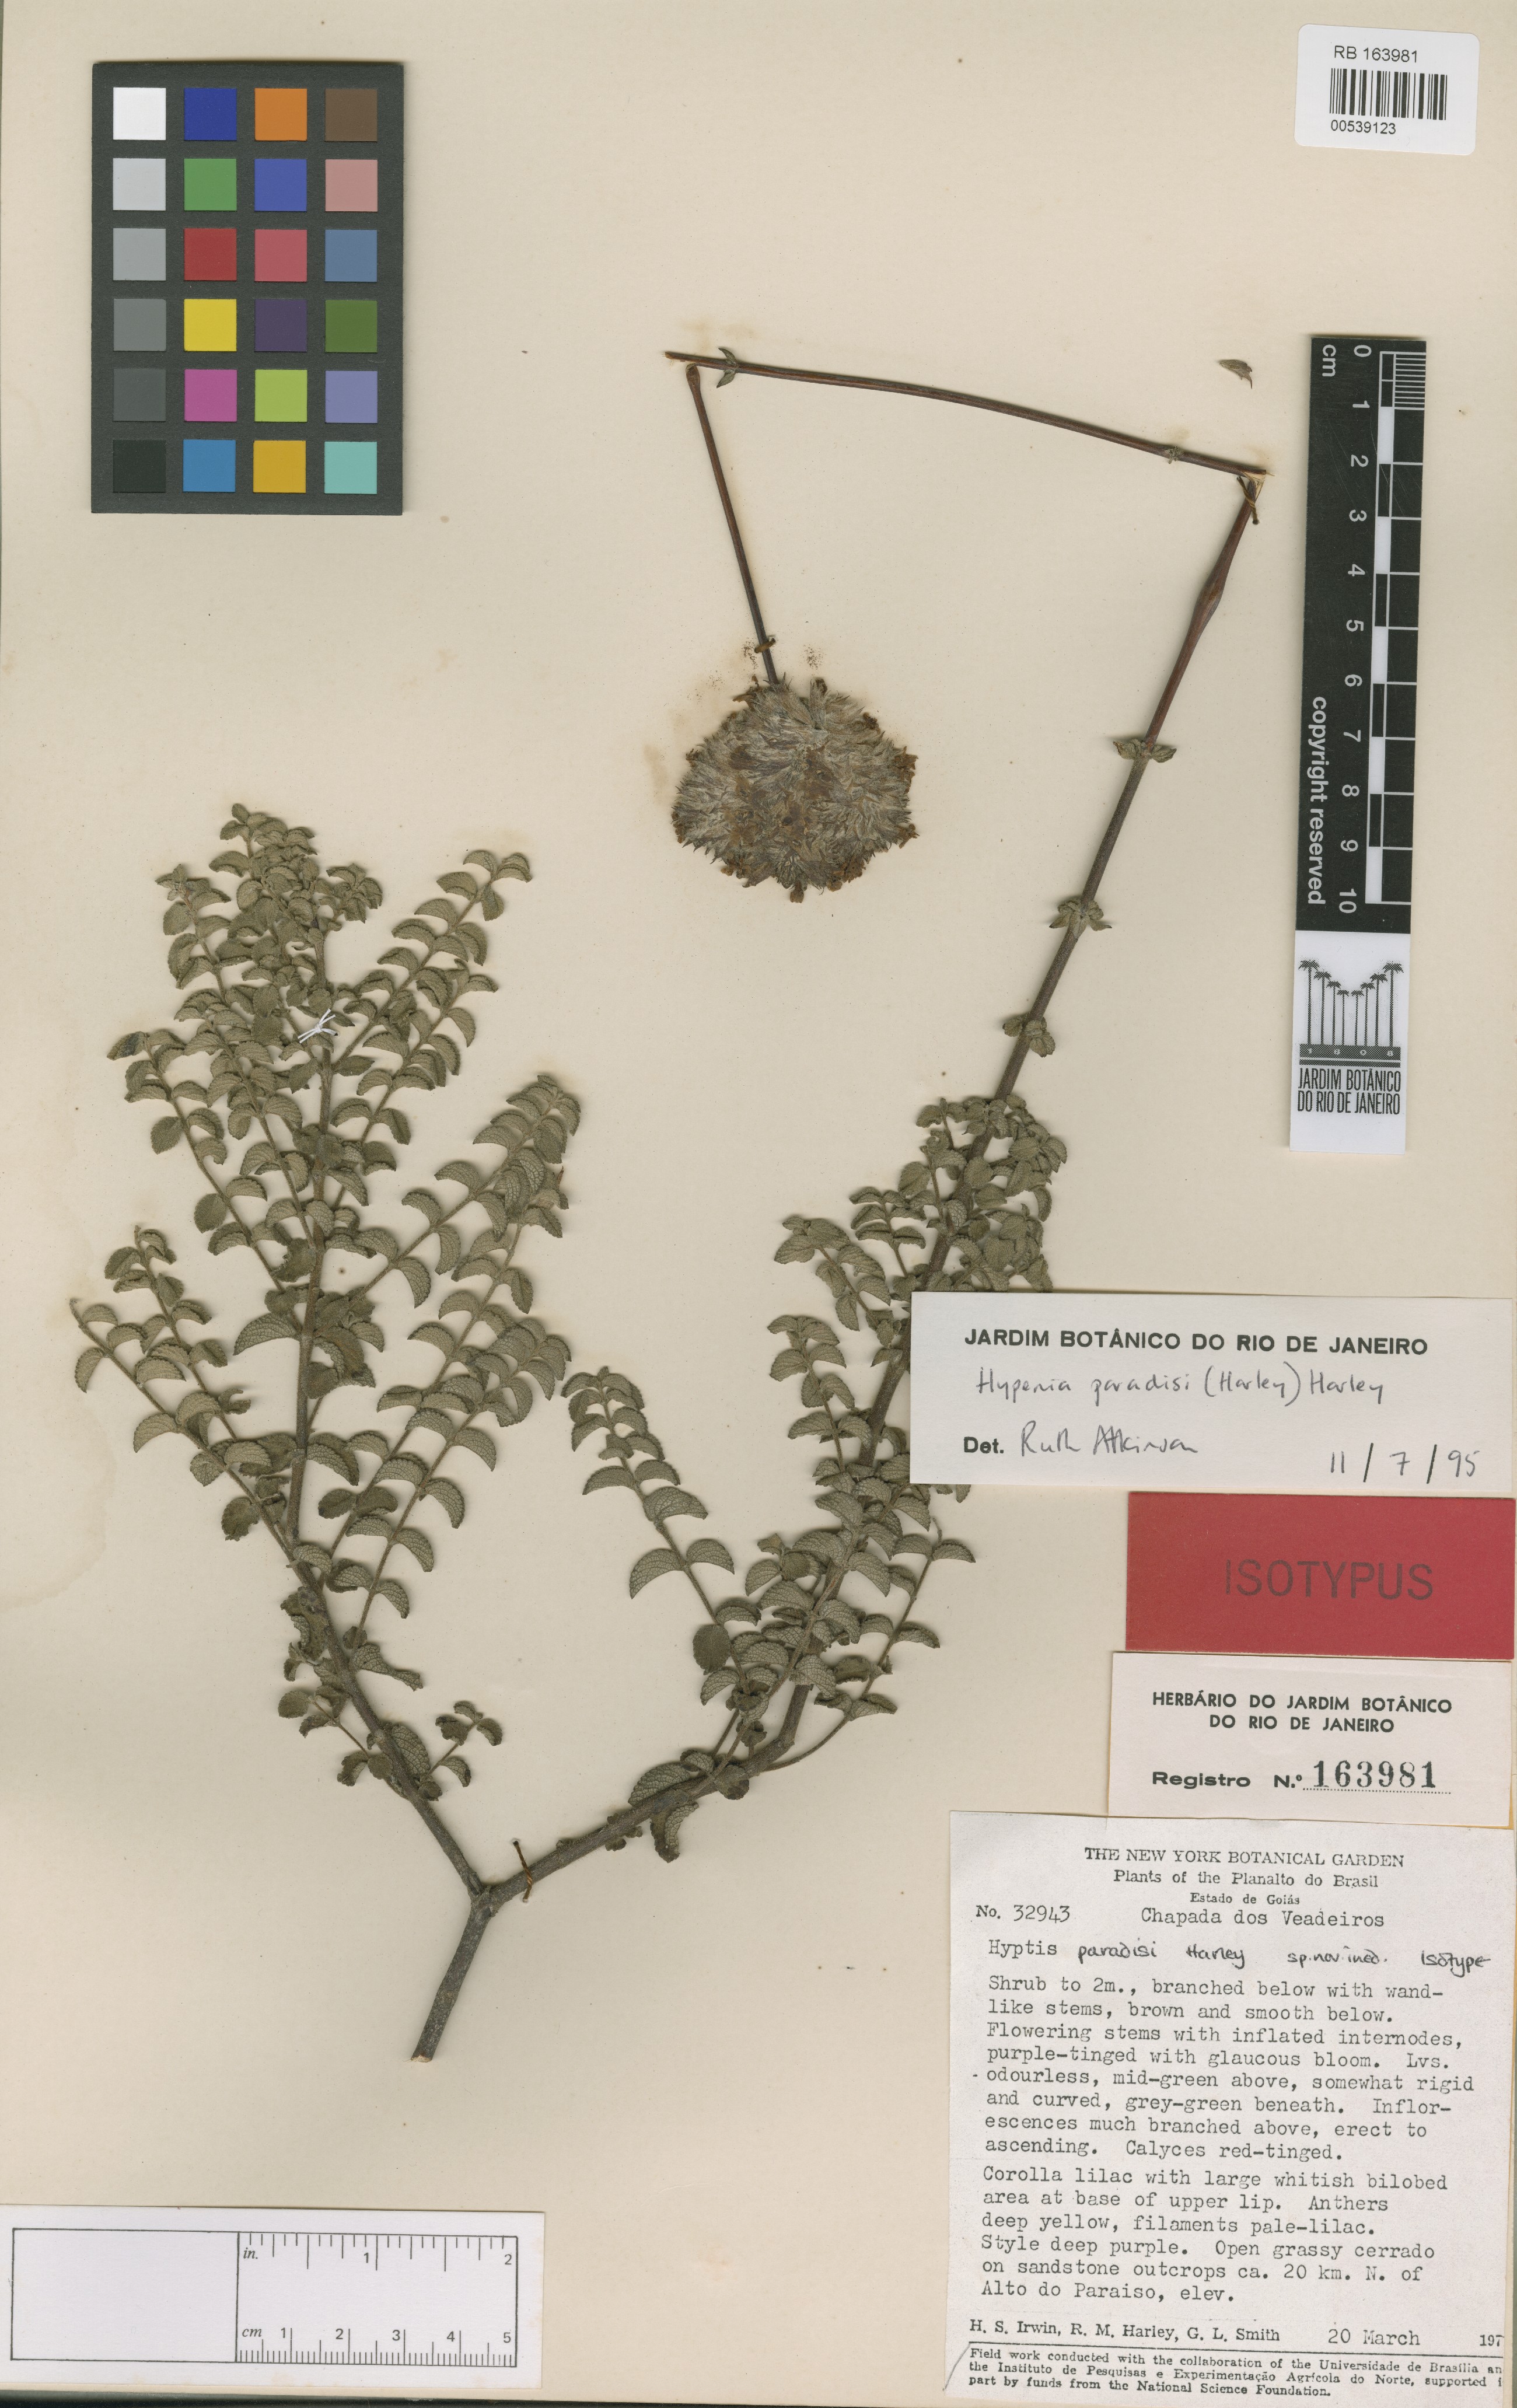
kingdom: Plantae
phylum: Tracheophyta
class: Magnoliopsida
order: Lamiales
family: Lamiaceae
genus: Hypenia
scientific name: Hypenia paradisi
